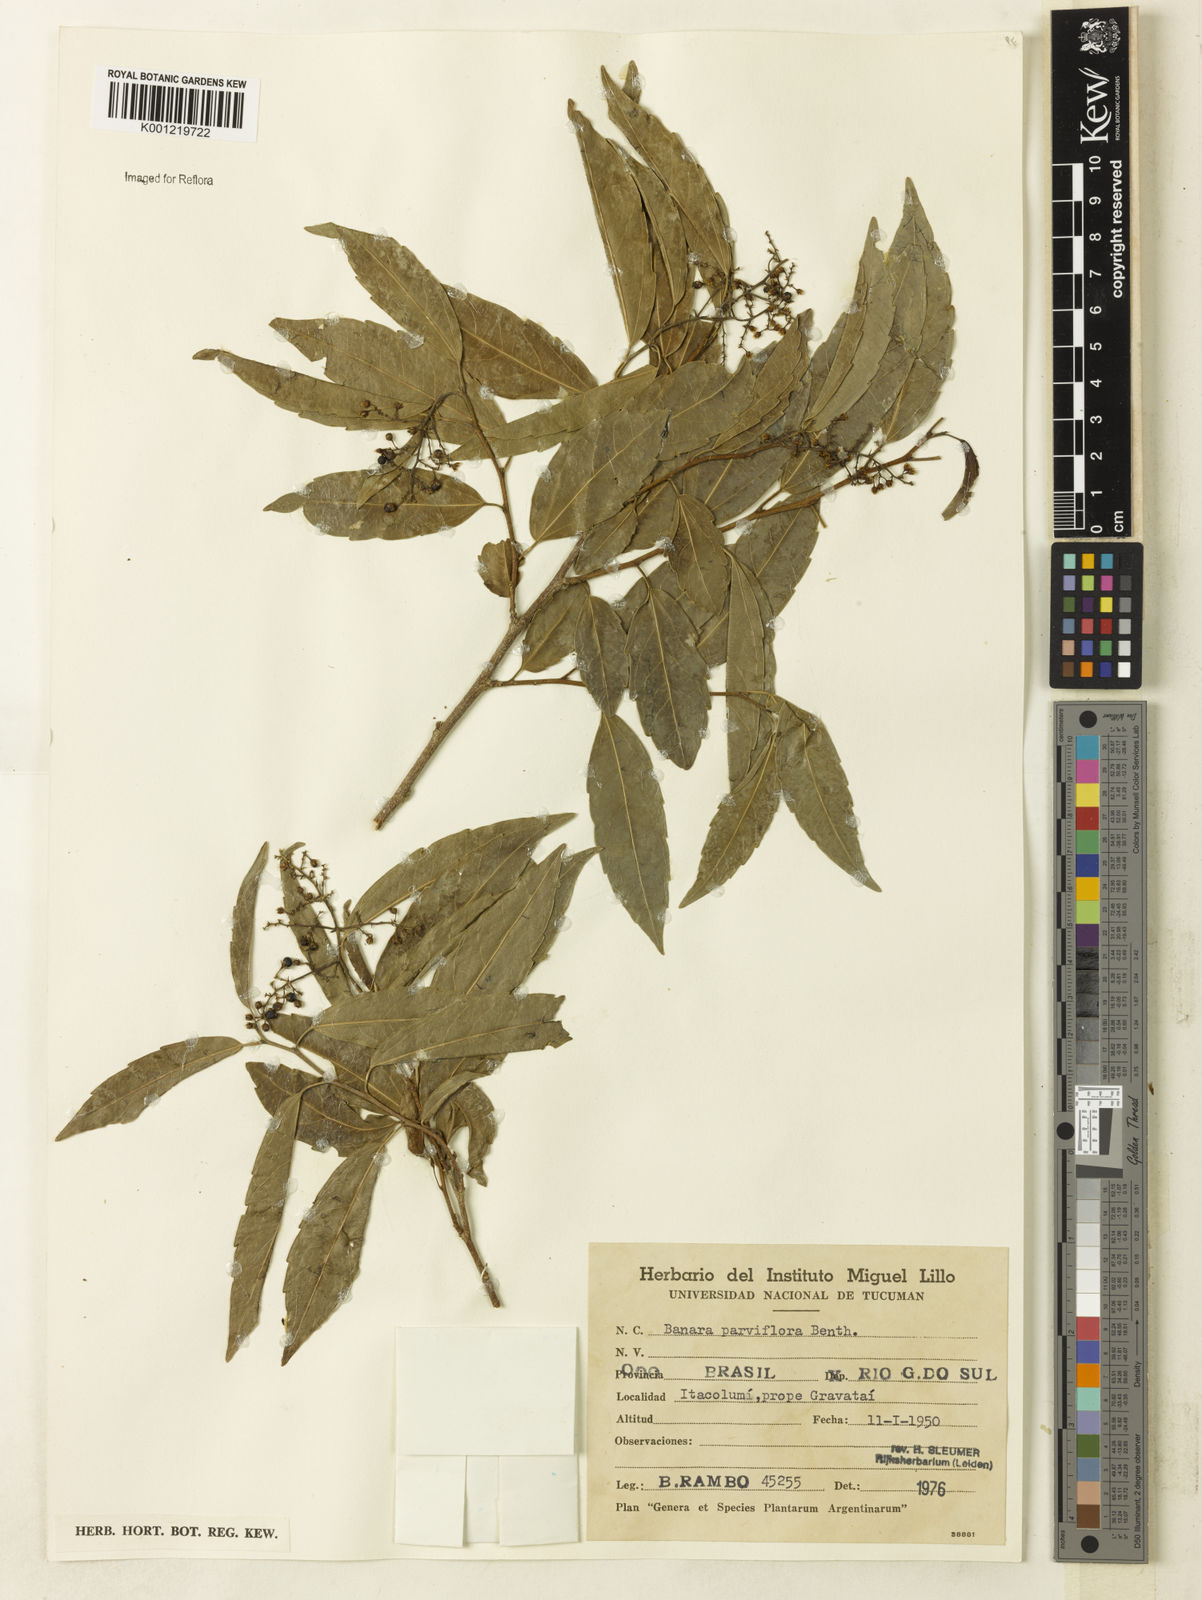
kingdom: Plantae
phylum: Tracheophyta
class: Magnoliopsida
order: Malpighiales
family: Salicaceae
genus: Banara
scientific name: Banara parviflora
